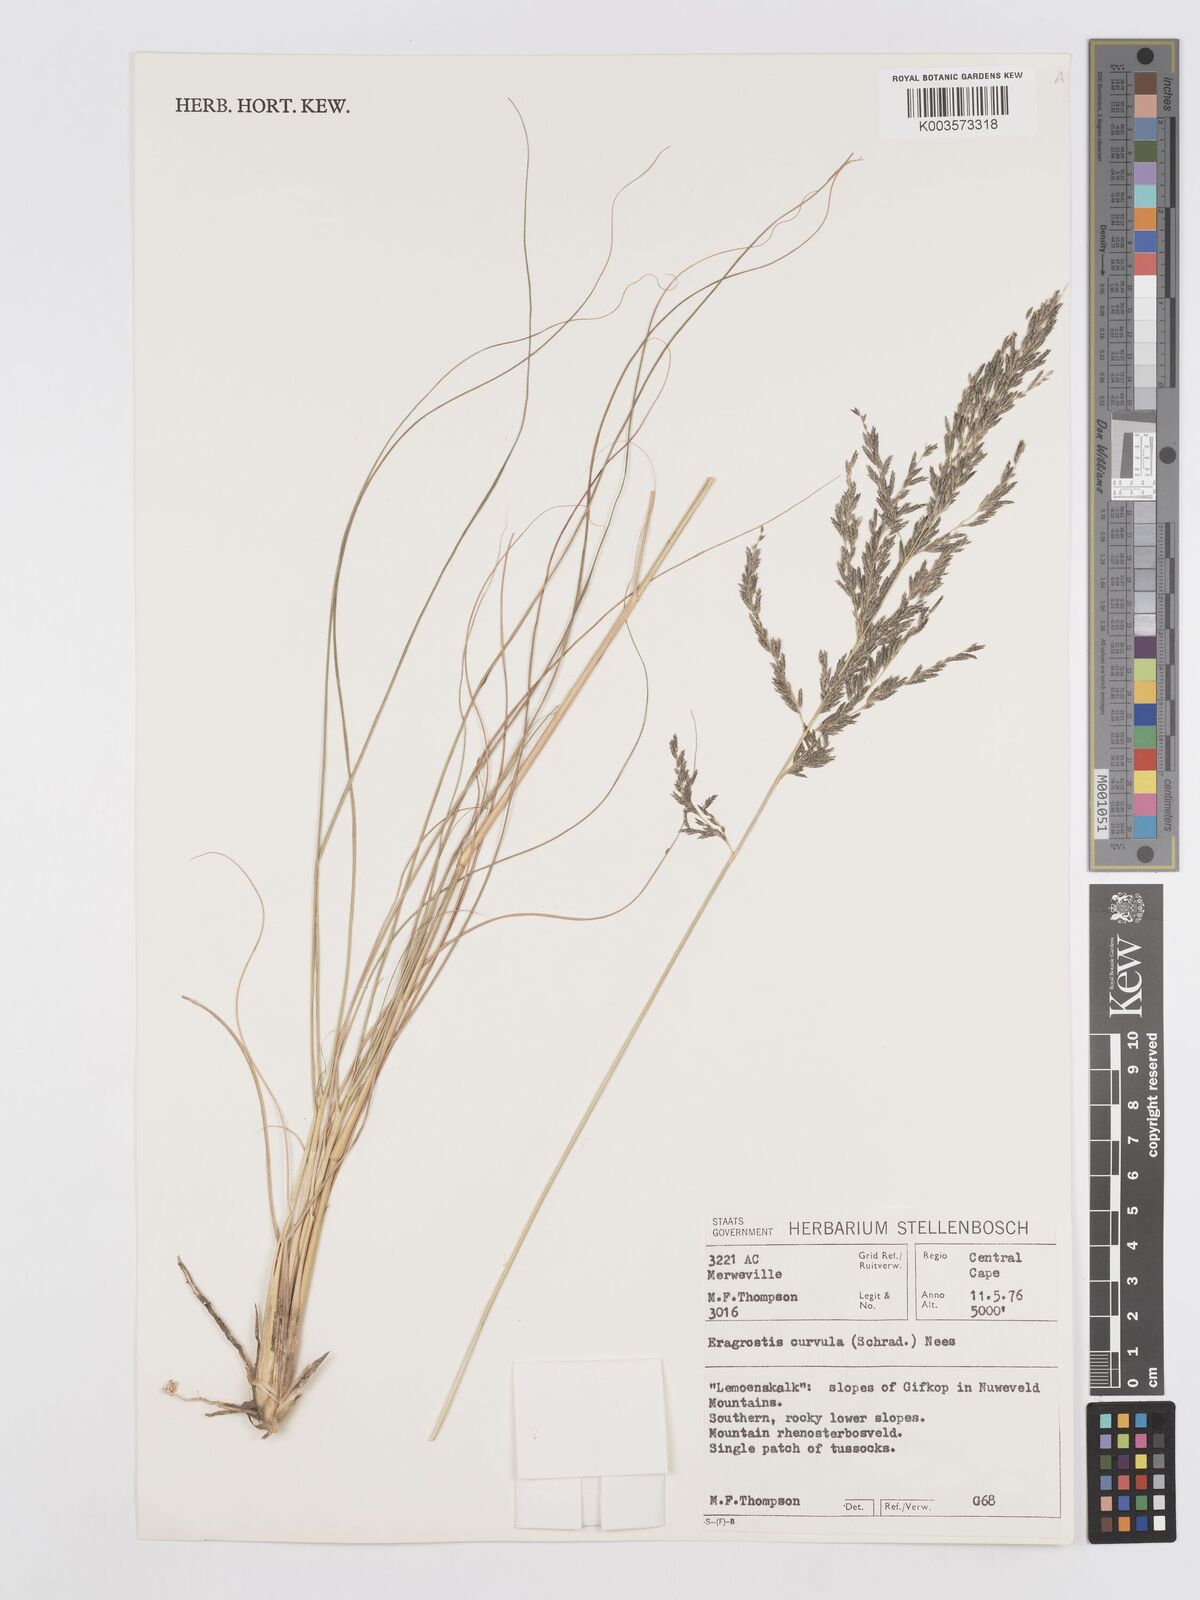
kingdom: Plantae
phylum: Tracheophyta
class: Liliopsida
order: Poales
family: Poaceae
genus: Eragrostis
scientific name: Eragrostis curvula
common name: African love-grass
